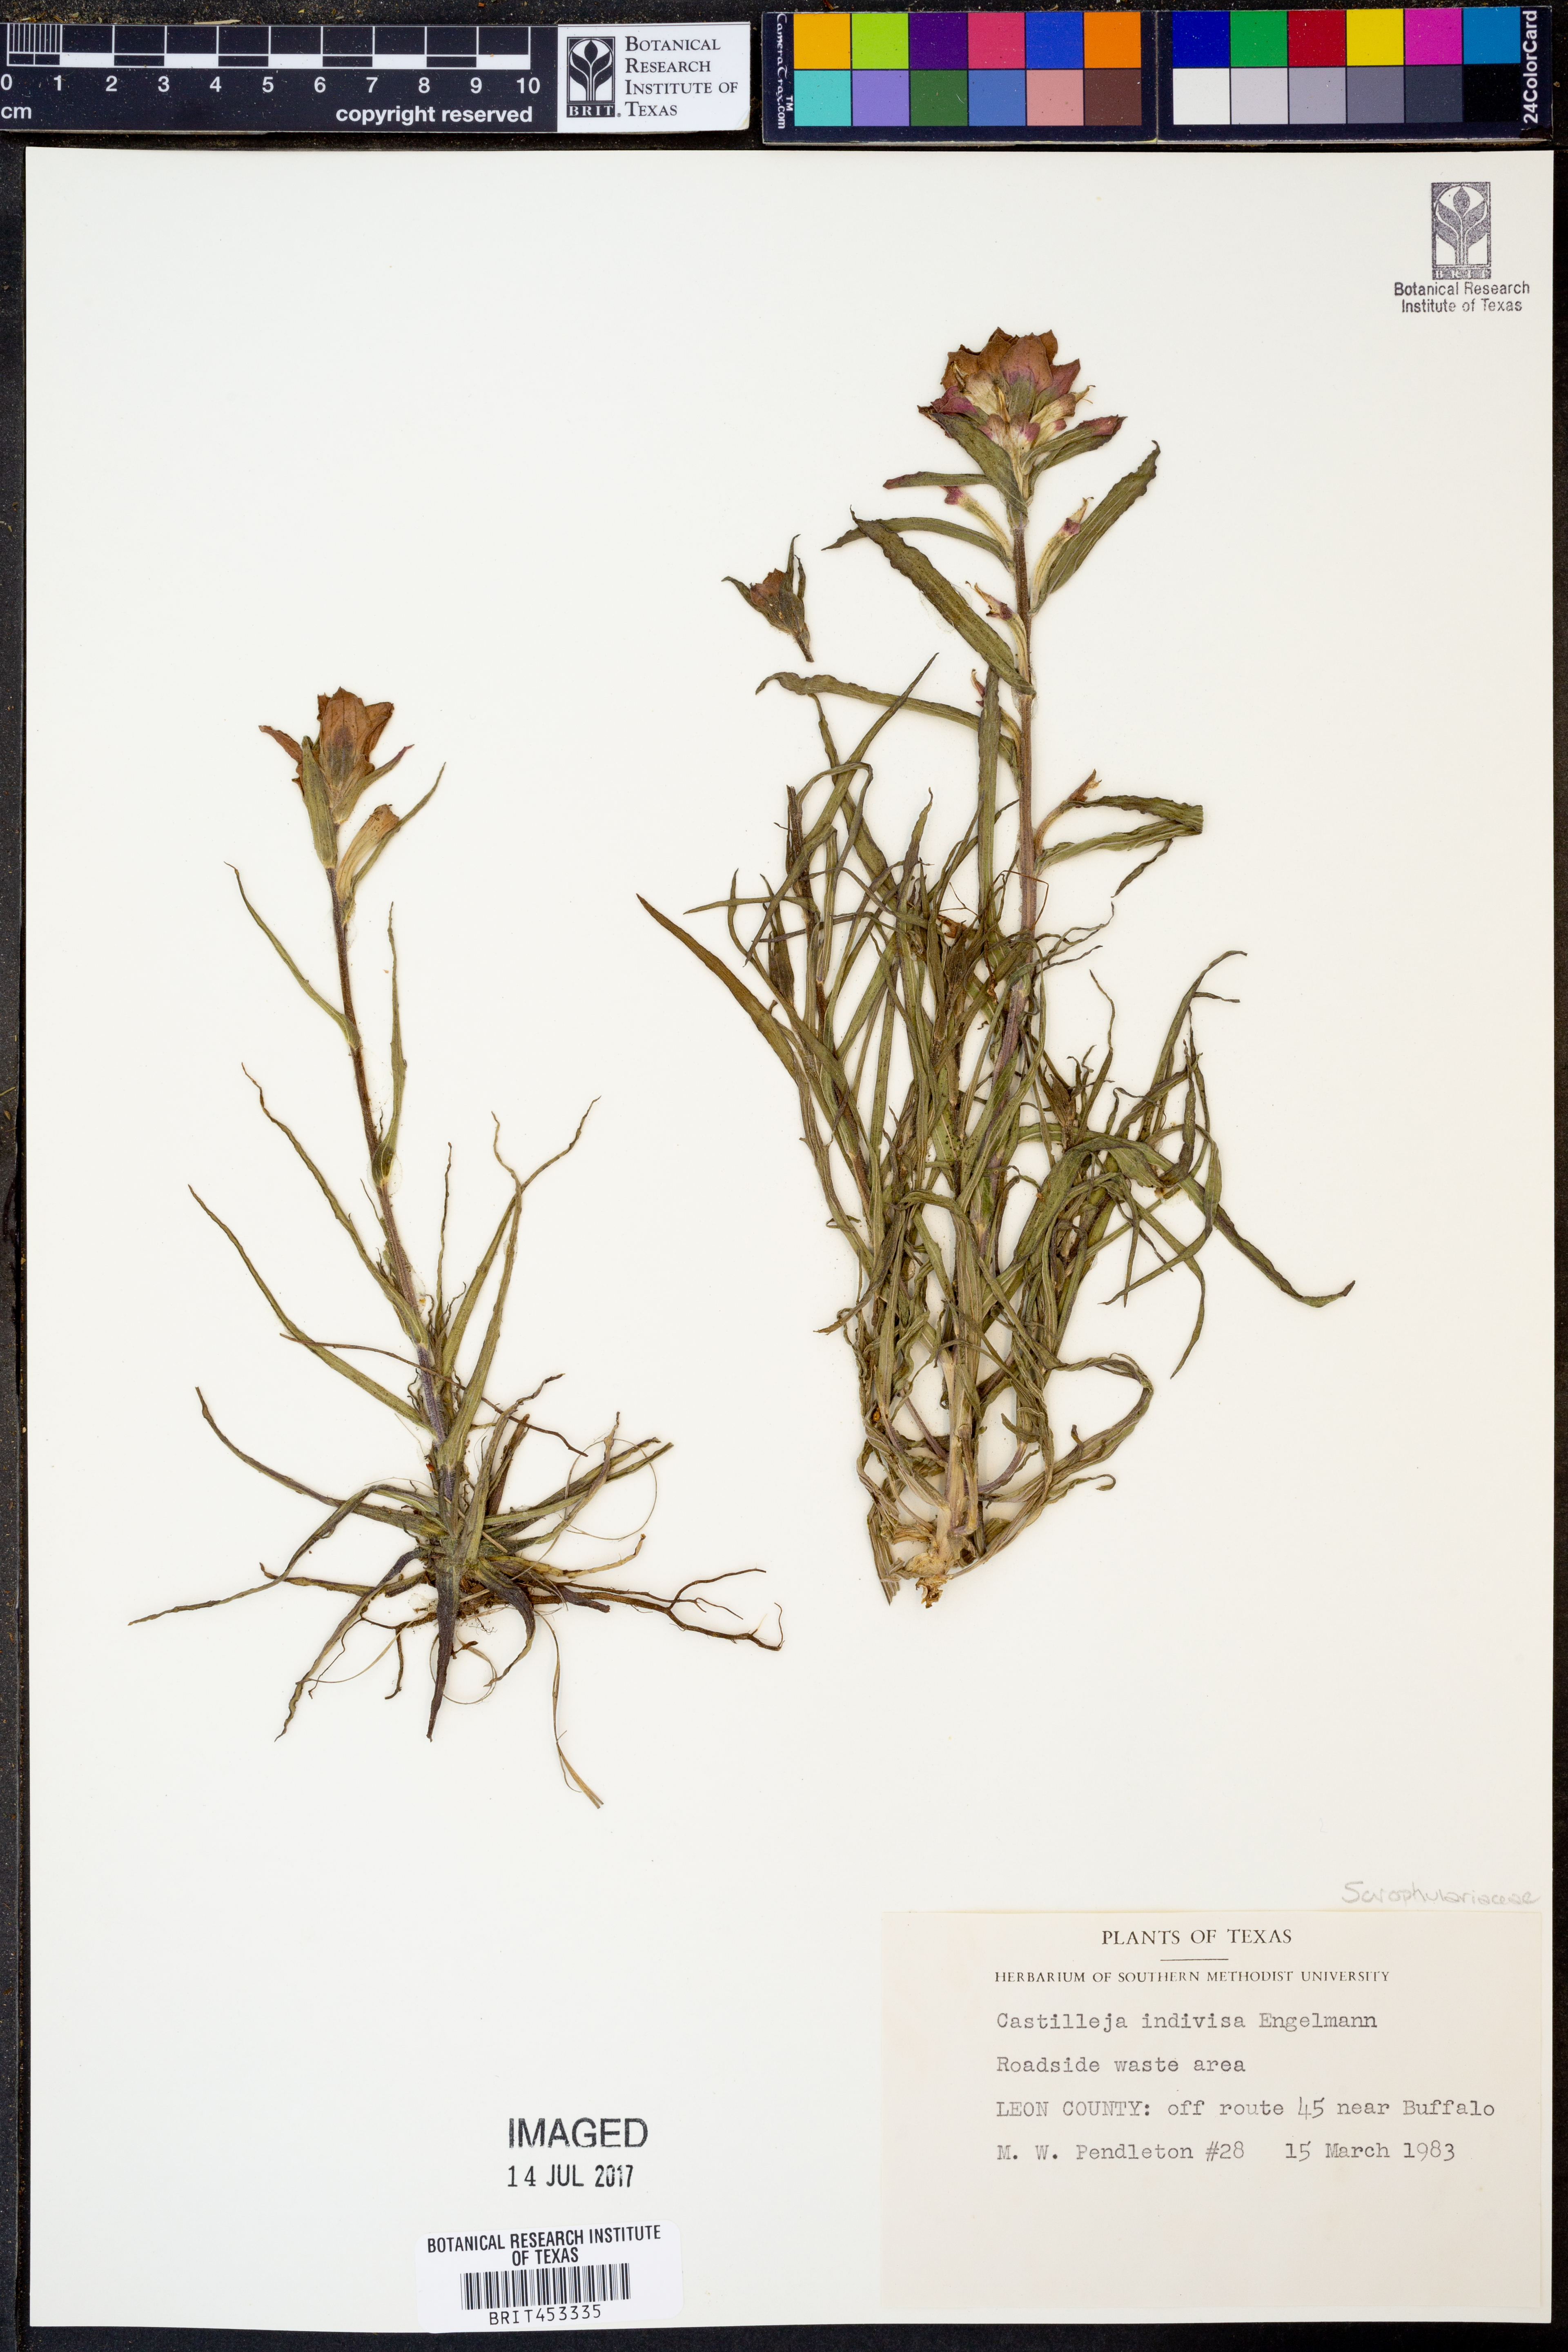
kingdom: Plantae
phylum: Tracheophyta
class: Magnoliopsida
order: Lamiales
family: Orobanchaceae
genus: Castilleja
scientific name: Castilleja indivisa
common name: Texas paintbrush
